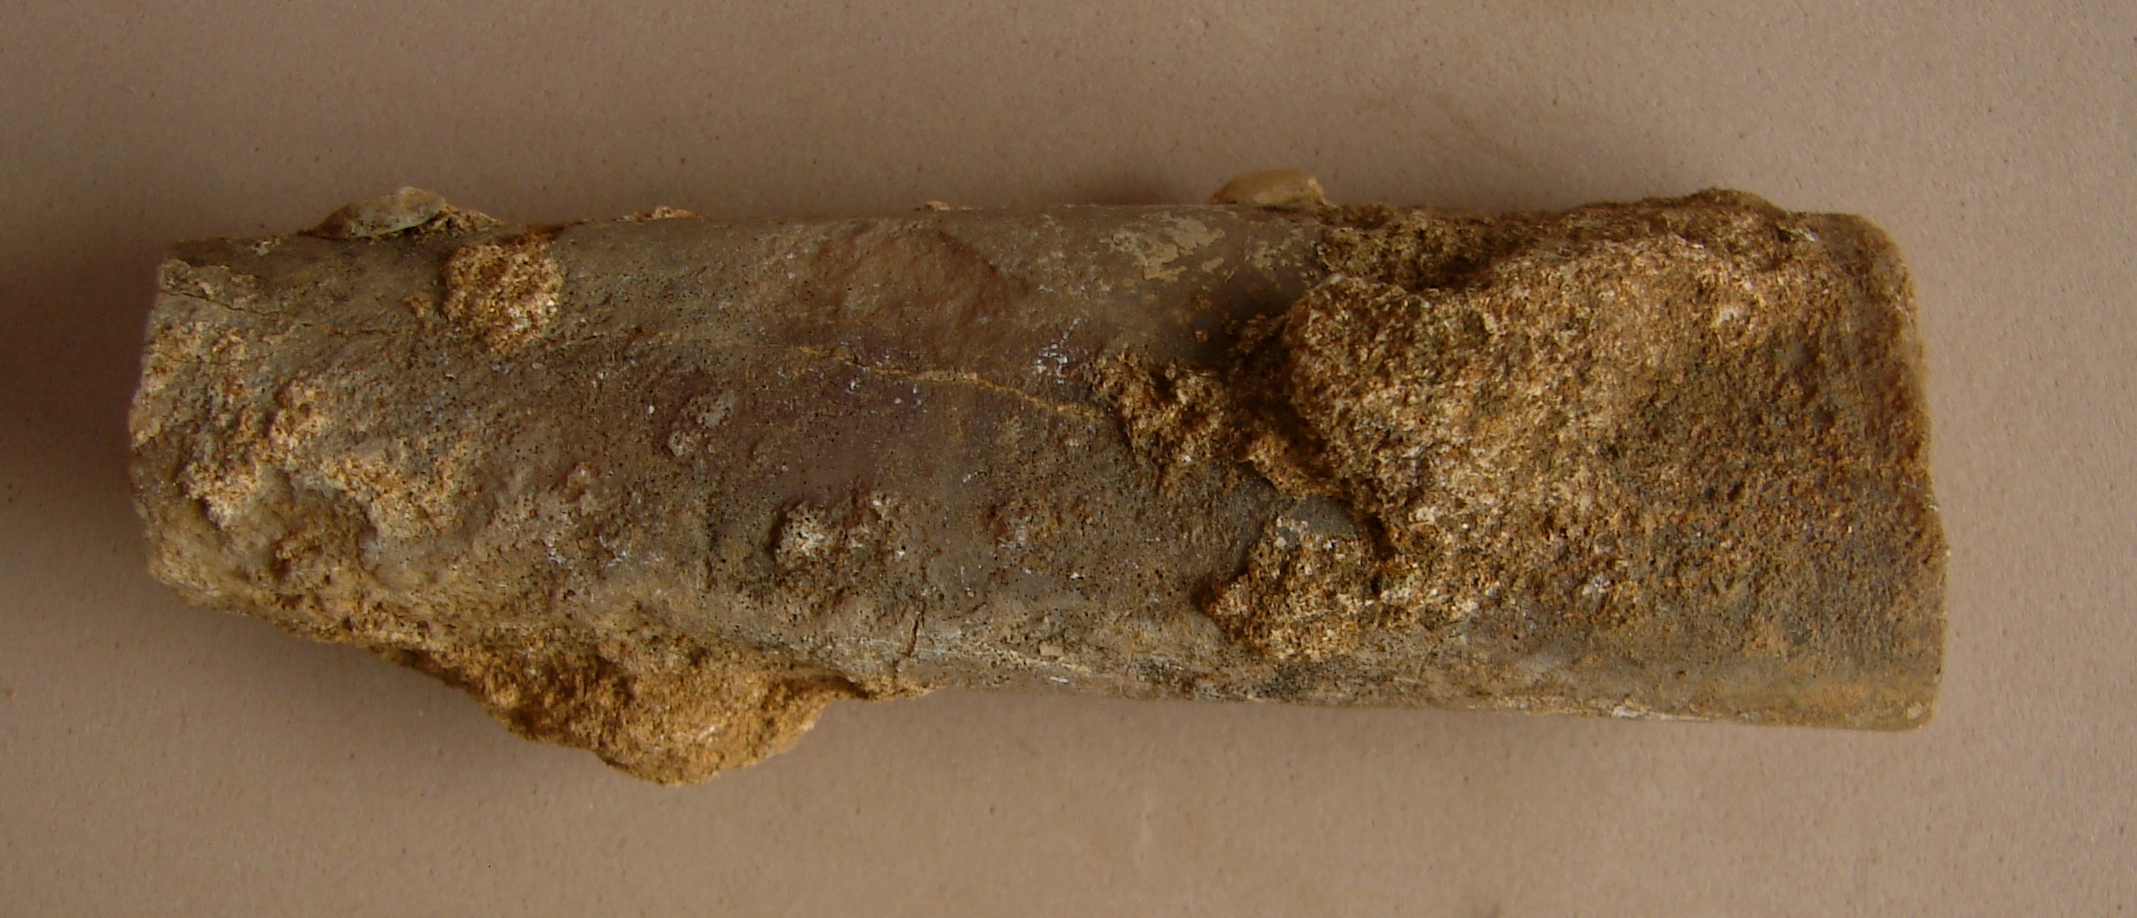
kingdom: Animalia
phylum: Mollusca
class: Cephalopoda
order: Belemnitida
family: Megateuthididae
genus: Megateuthis
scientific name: Megateuthis
